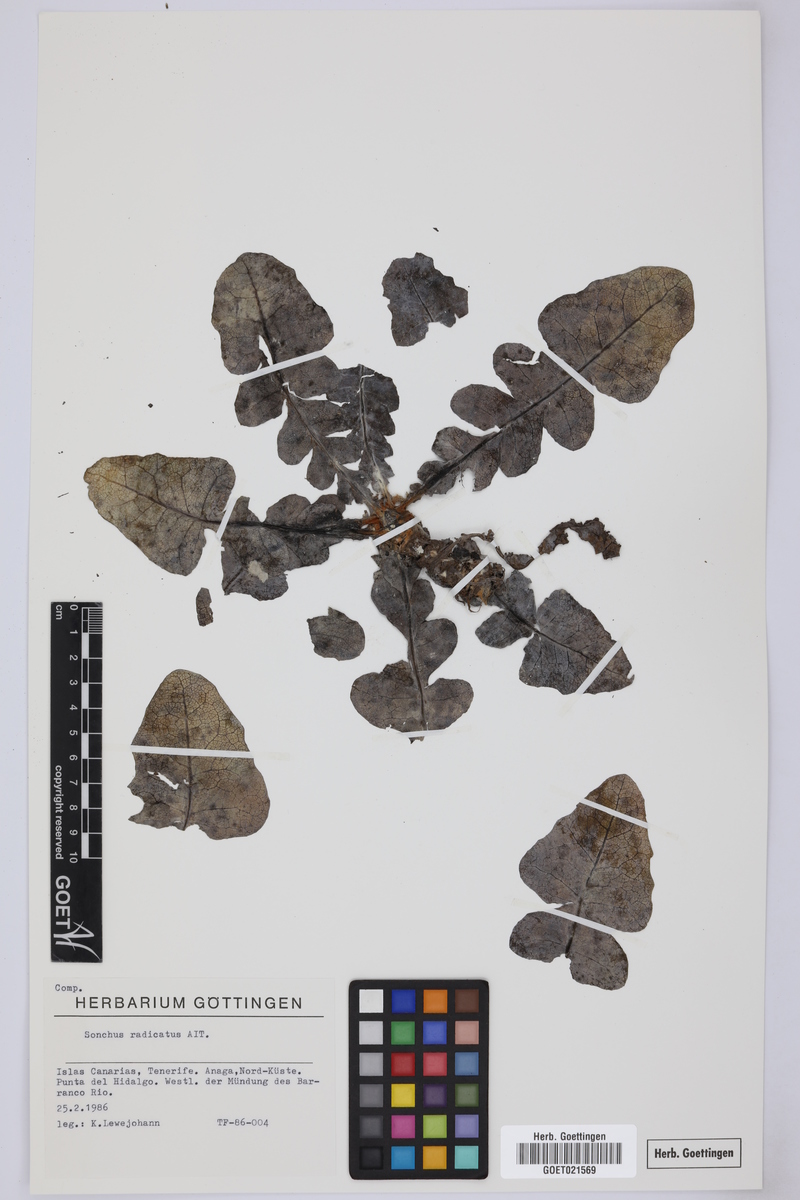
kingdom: Plantae
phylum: Tracheophyta
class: Magnoliopsida
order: Asterales
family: Asteraceae
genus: Sonchus
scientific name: Sonchus radicatus
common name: Long-rooted sow-thistle
